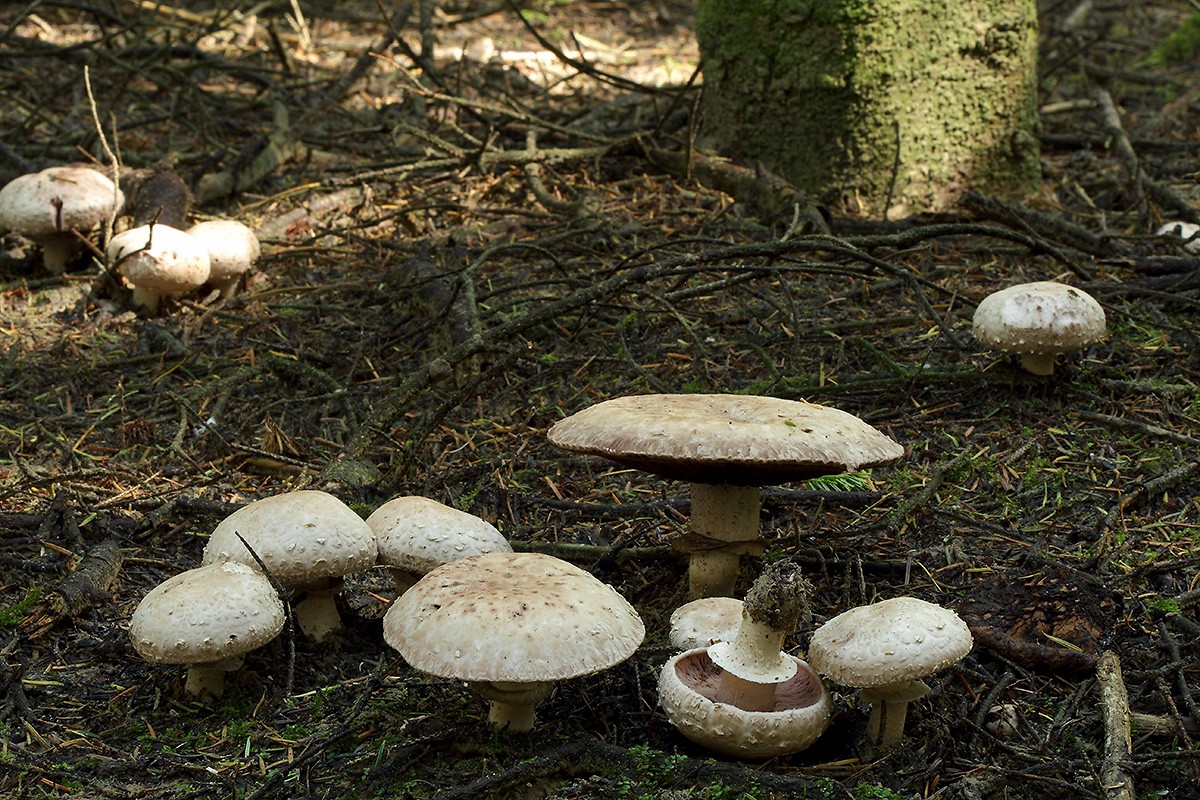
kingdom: Fungi
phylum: Basidiomycota
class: Agaricomycetes
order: Agaricales
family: Agaricaceae
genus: Agaricus
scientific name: Agaricus subfloccosus
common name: randskællet champignon
